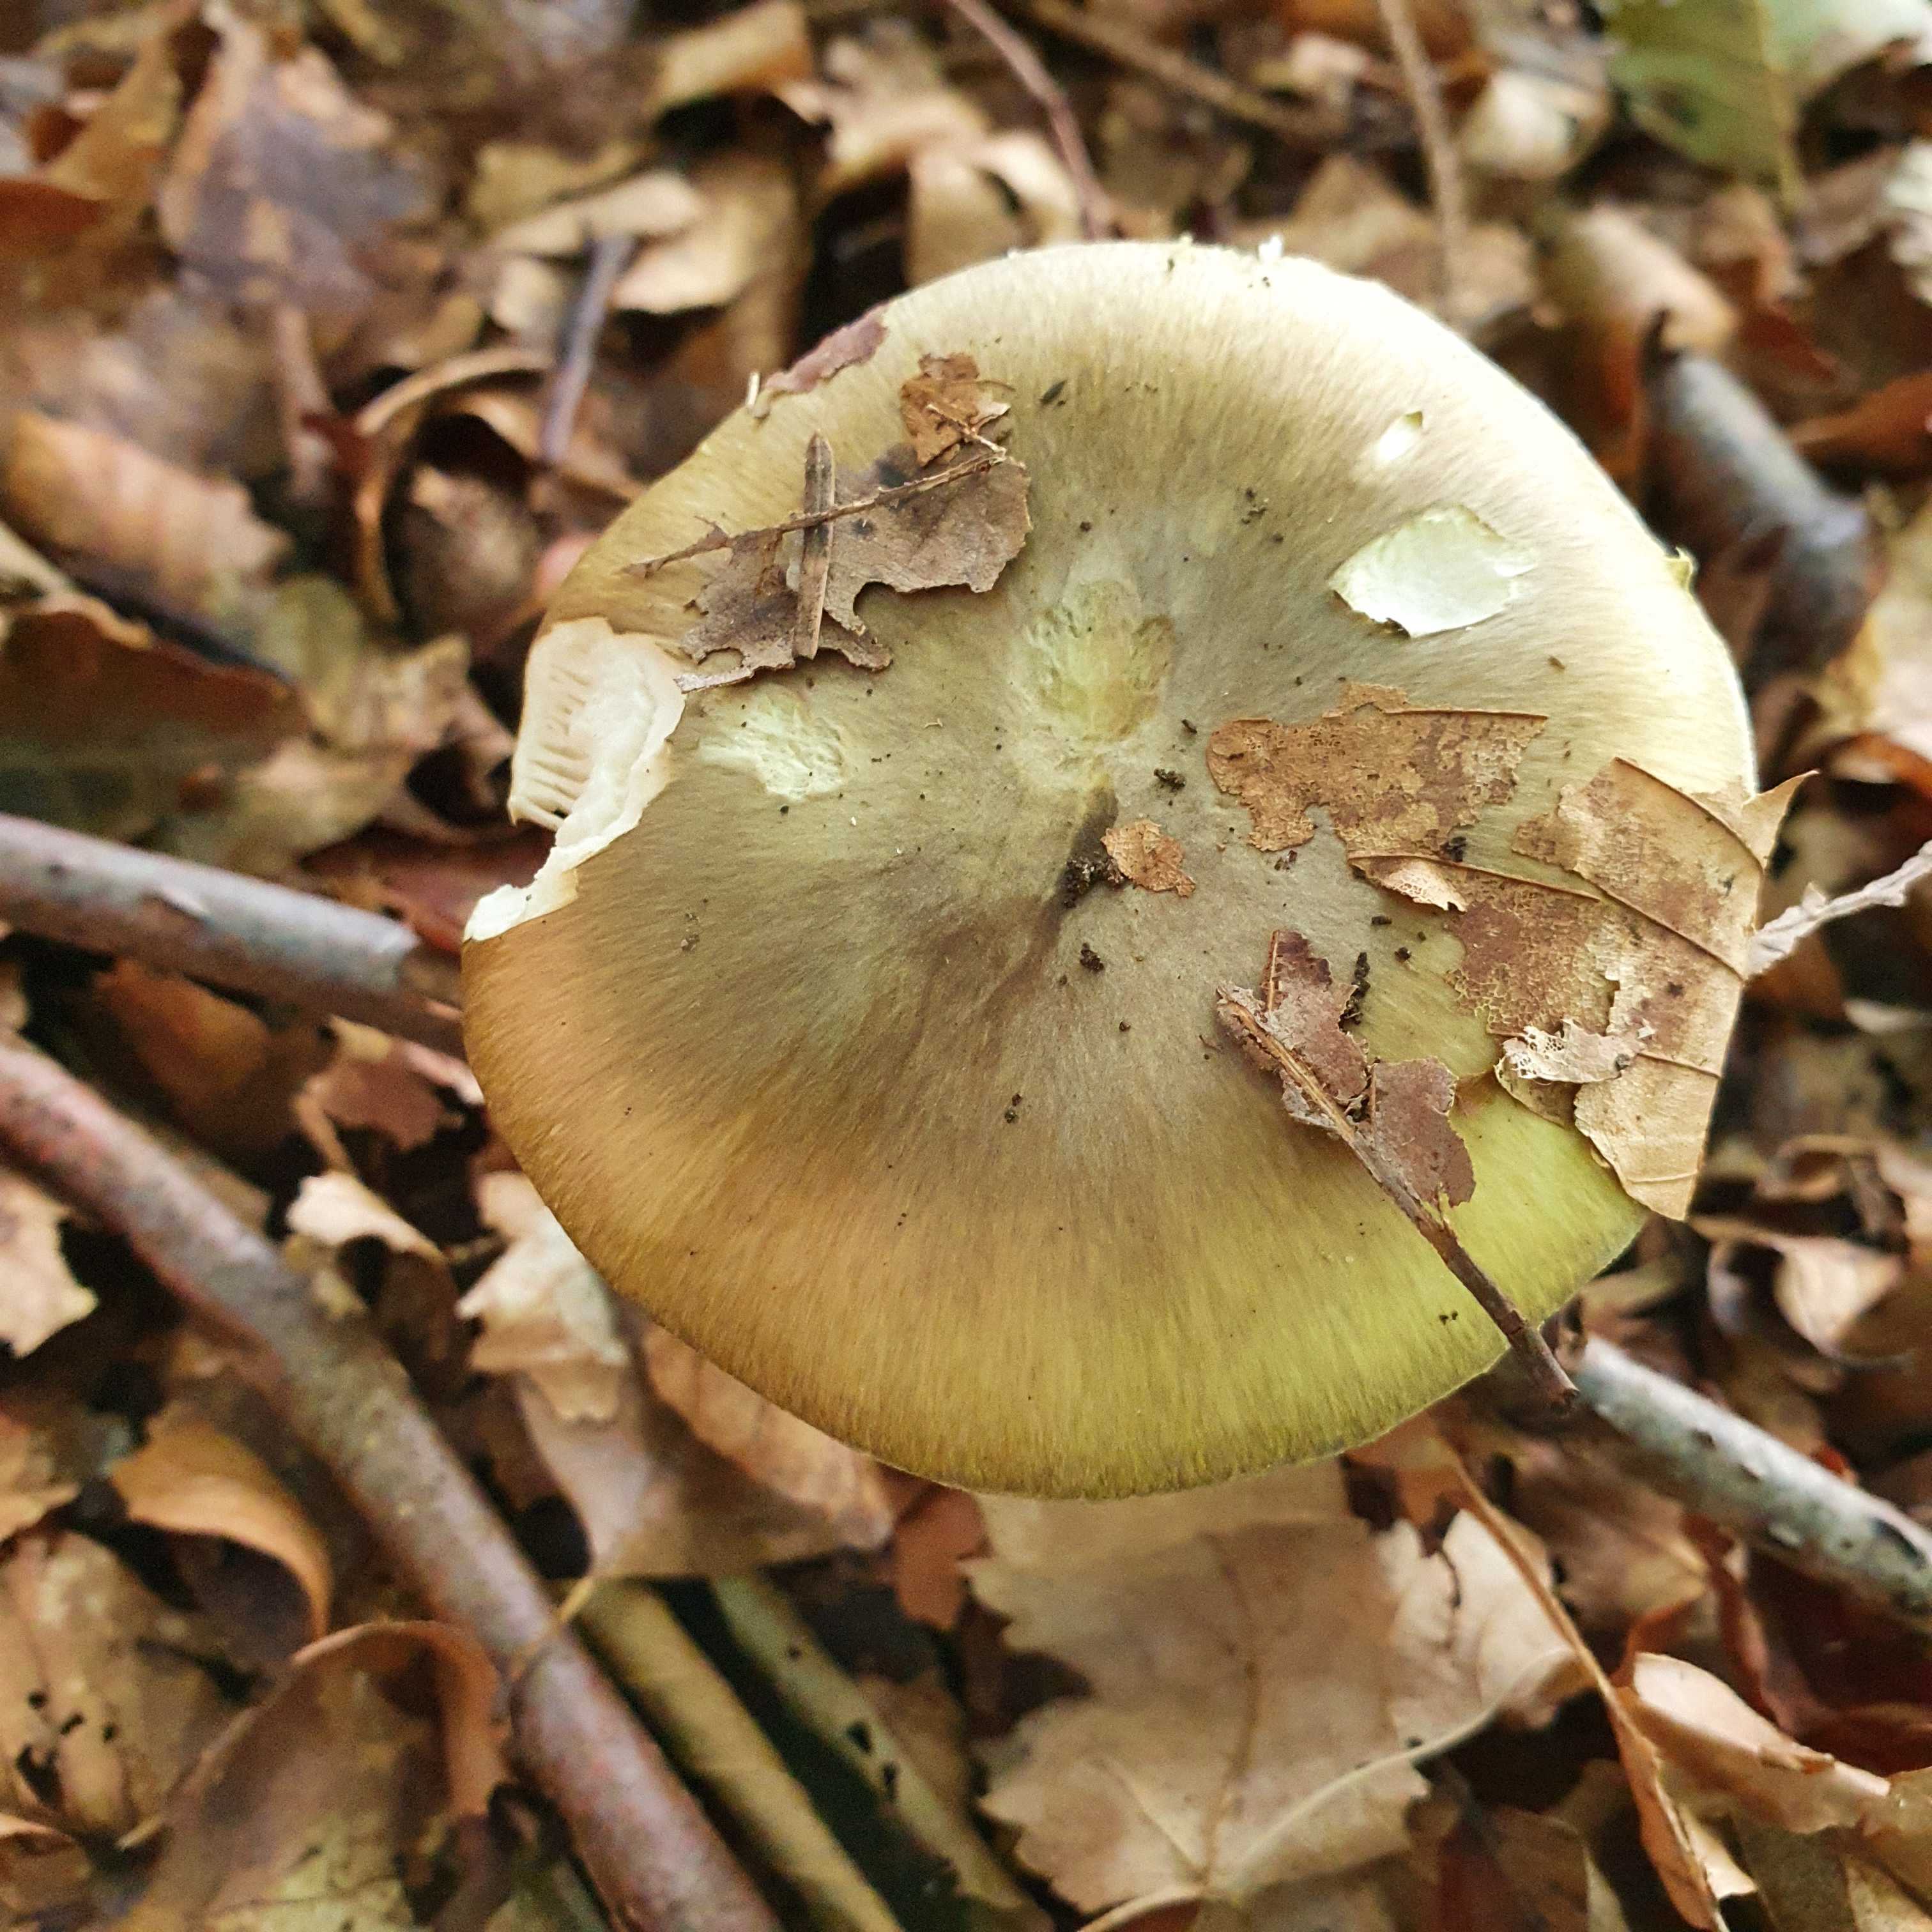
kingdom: Fungi
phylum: Basidiomycota
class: Agaricomycetes
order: Agaricales
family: Amanitaceae
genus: Amanita
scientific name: Amanita phalloides
